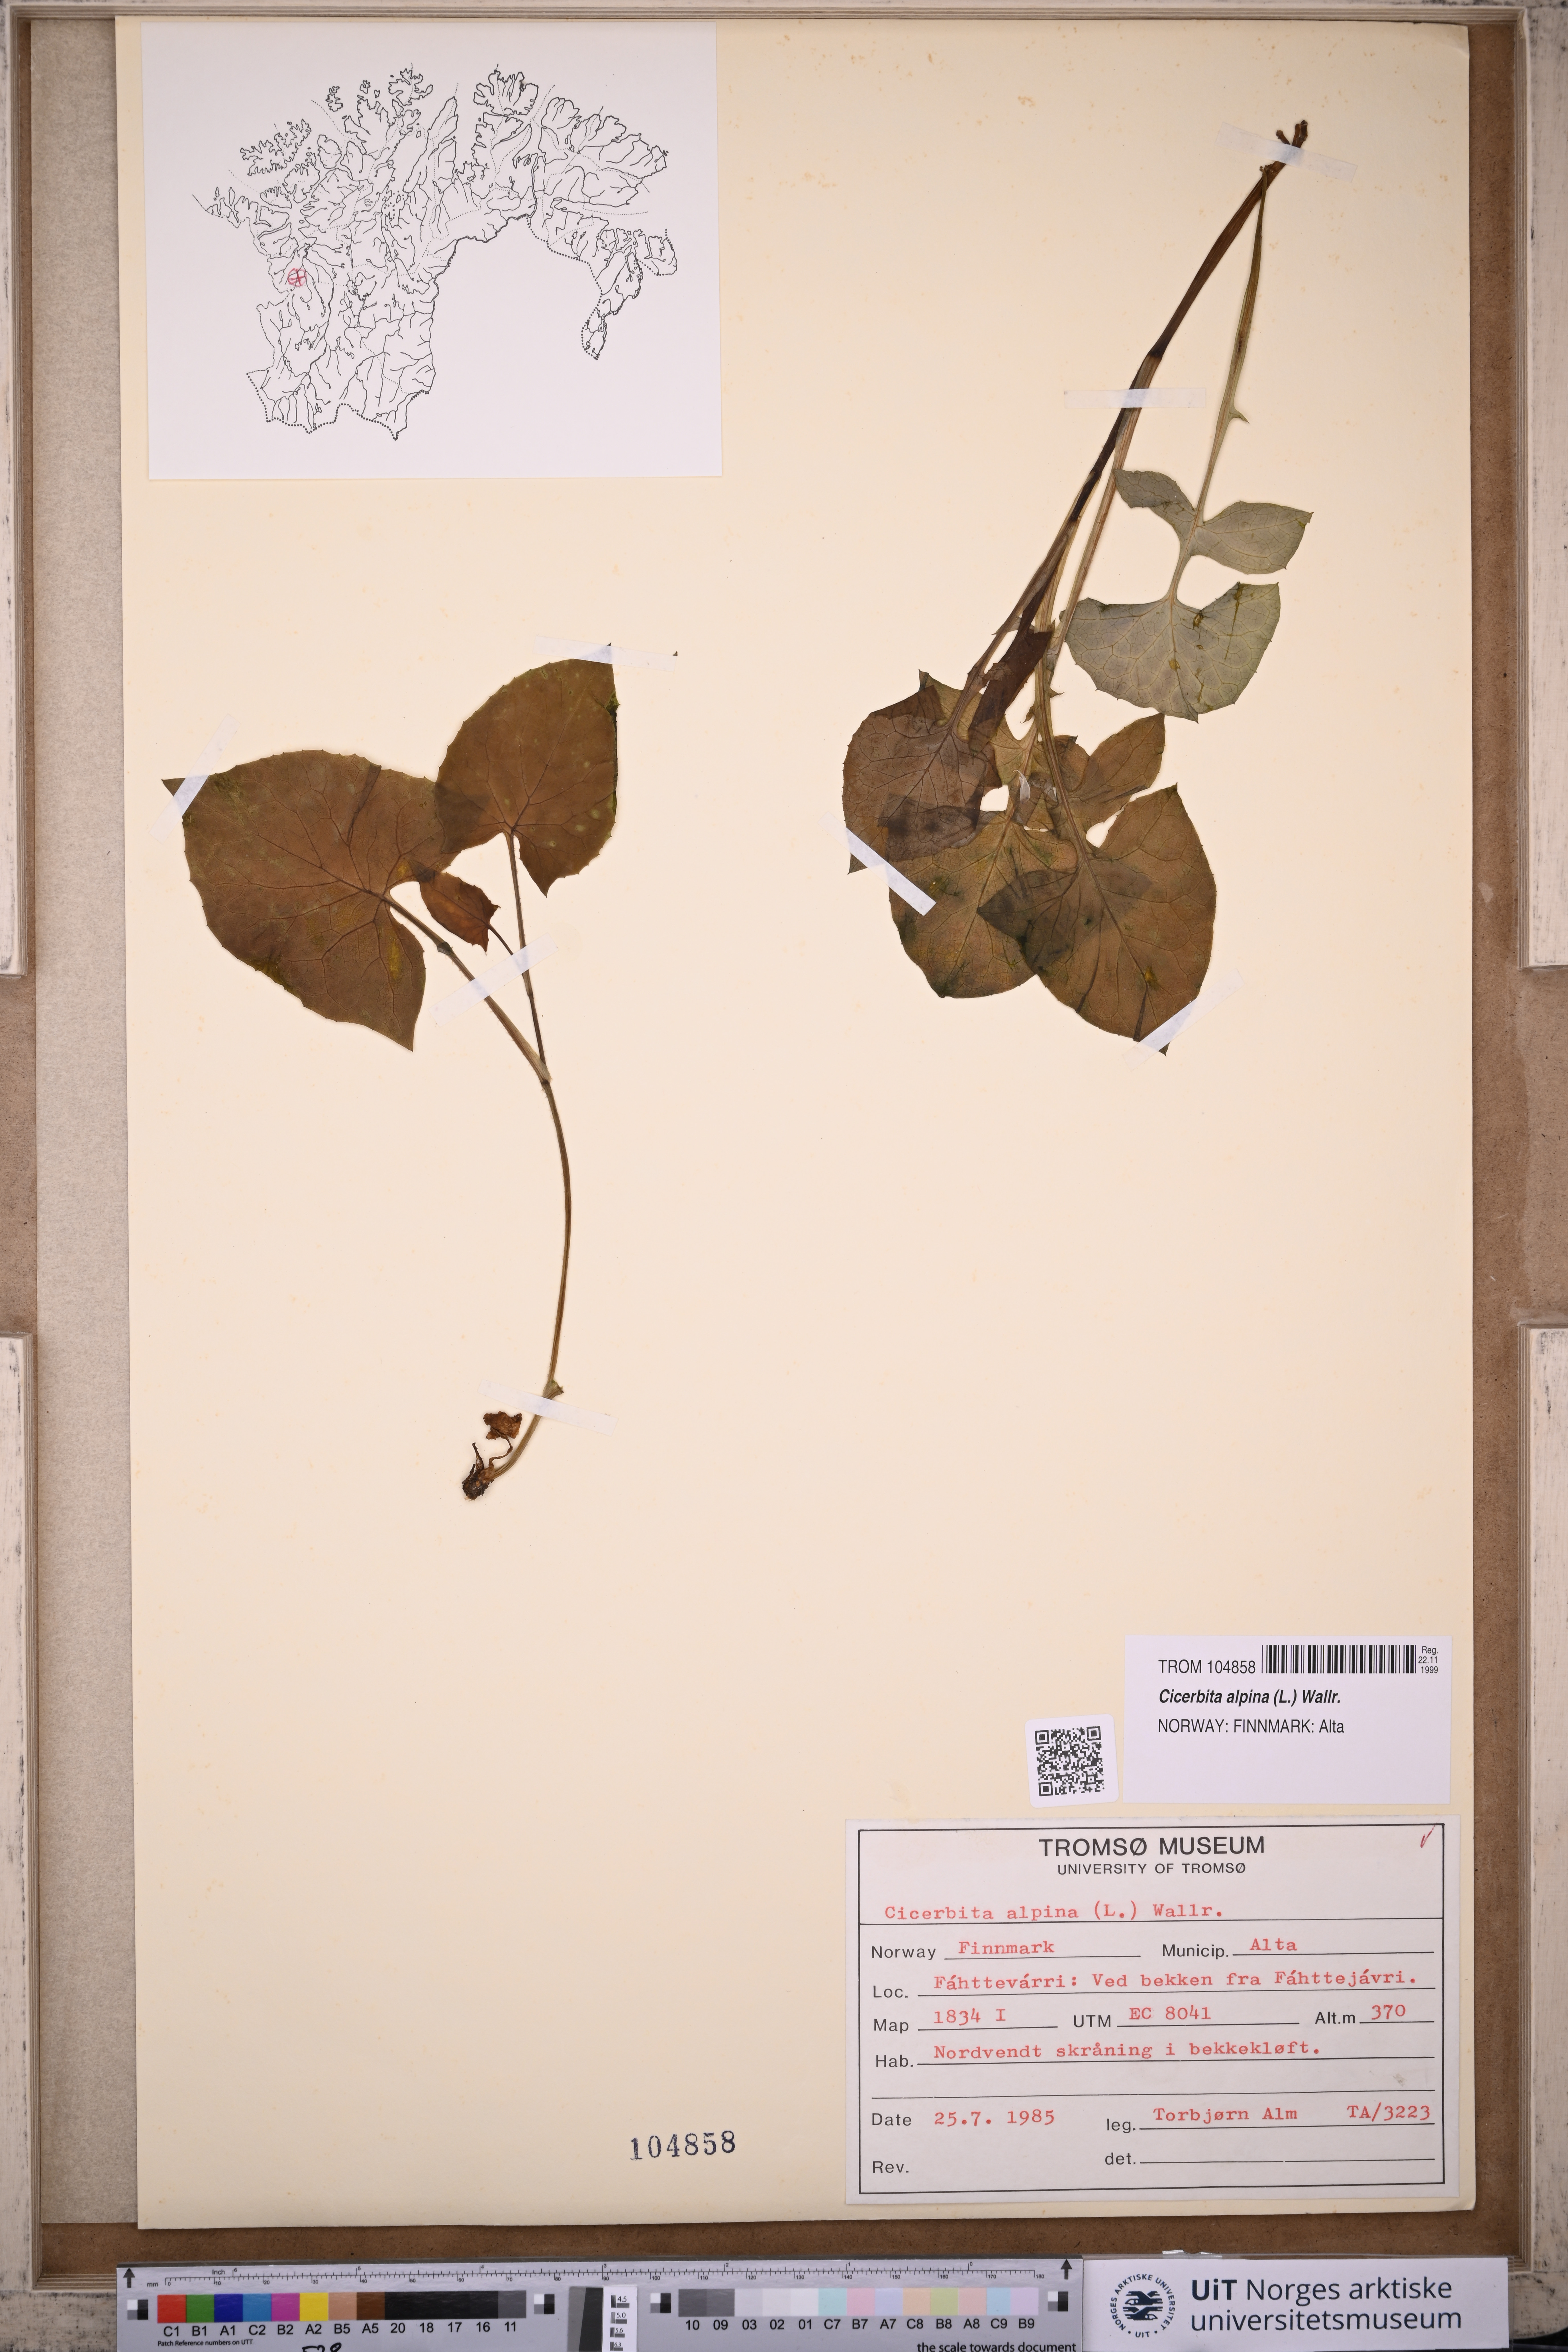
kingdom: Plantae
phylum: Tracheophyta
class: Magnoliopsida
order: Asterales
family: Asteraceae
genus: Cicerbita
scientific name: Cicerbita alpina
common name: Alpine blue-sow-thistle
